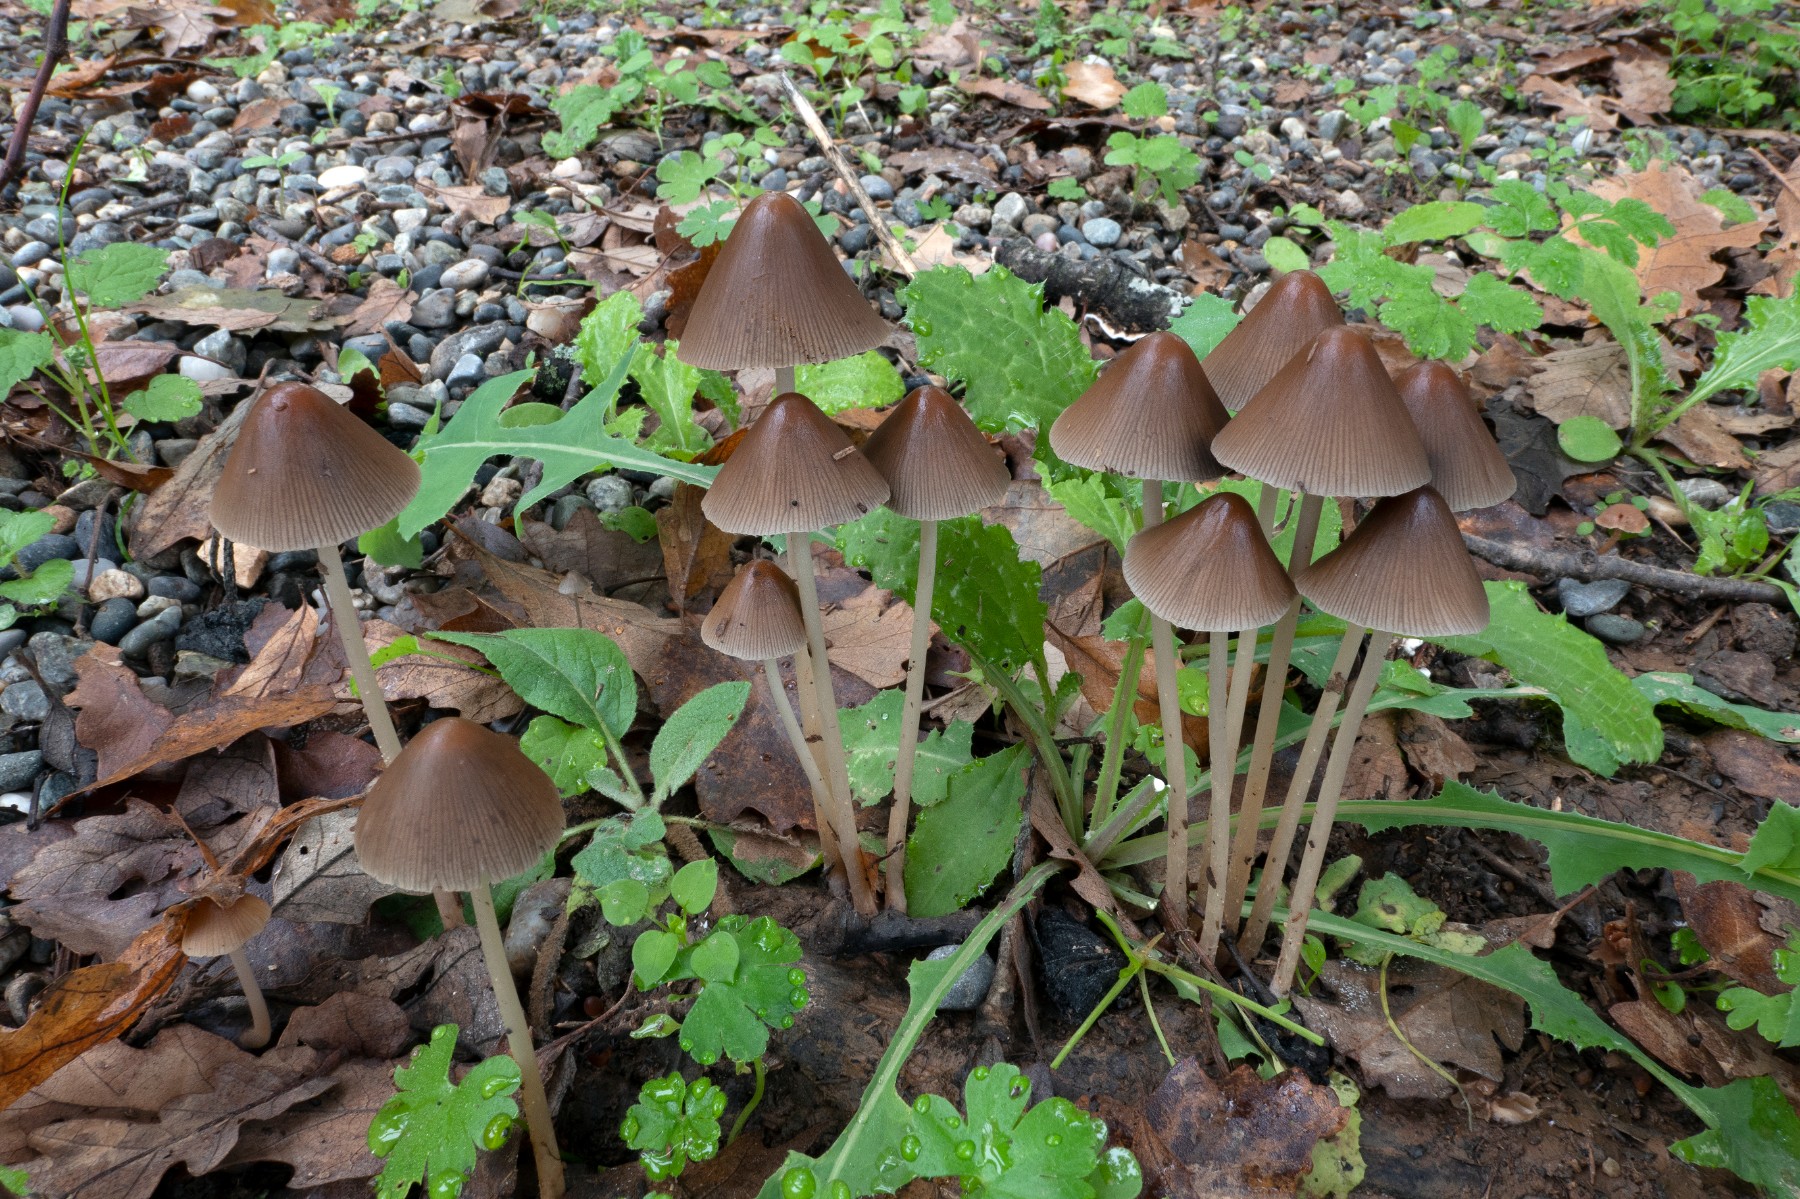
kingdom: Fungi
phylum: Basidiomycota
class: Agaricomycetes
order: Agaricales
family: Psathyrellaceae
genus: Parasola
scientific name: Parasola conopilea
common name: kegle-hjulhat
